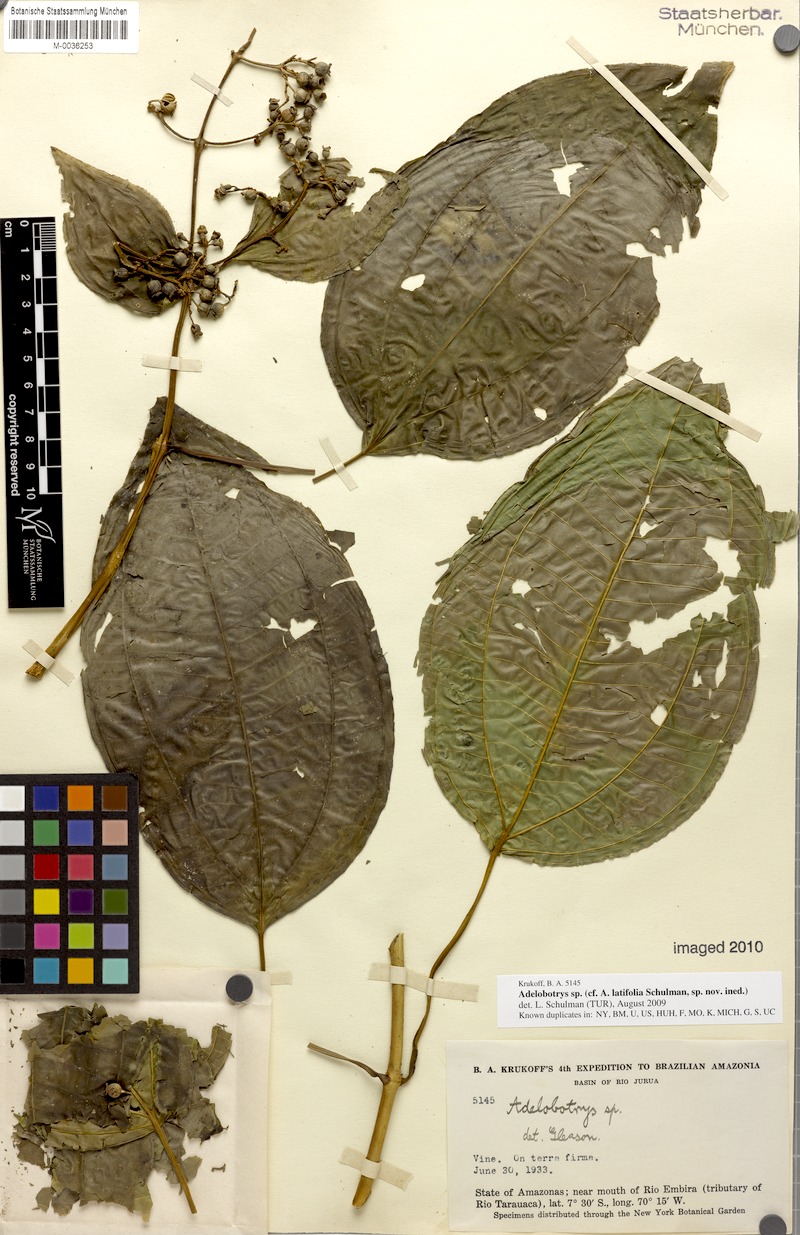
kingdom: Plantae
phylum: Tracheophyta
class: Magnoliopsida
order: Myrtales
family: Melastomataceae
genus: Adelobotrys
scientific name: Adelobotrys latifolius
